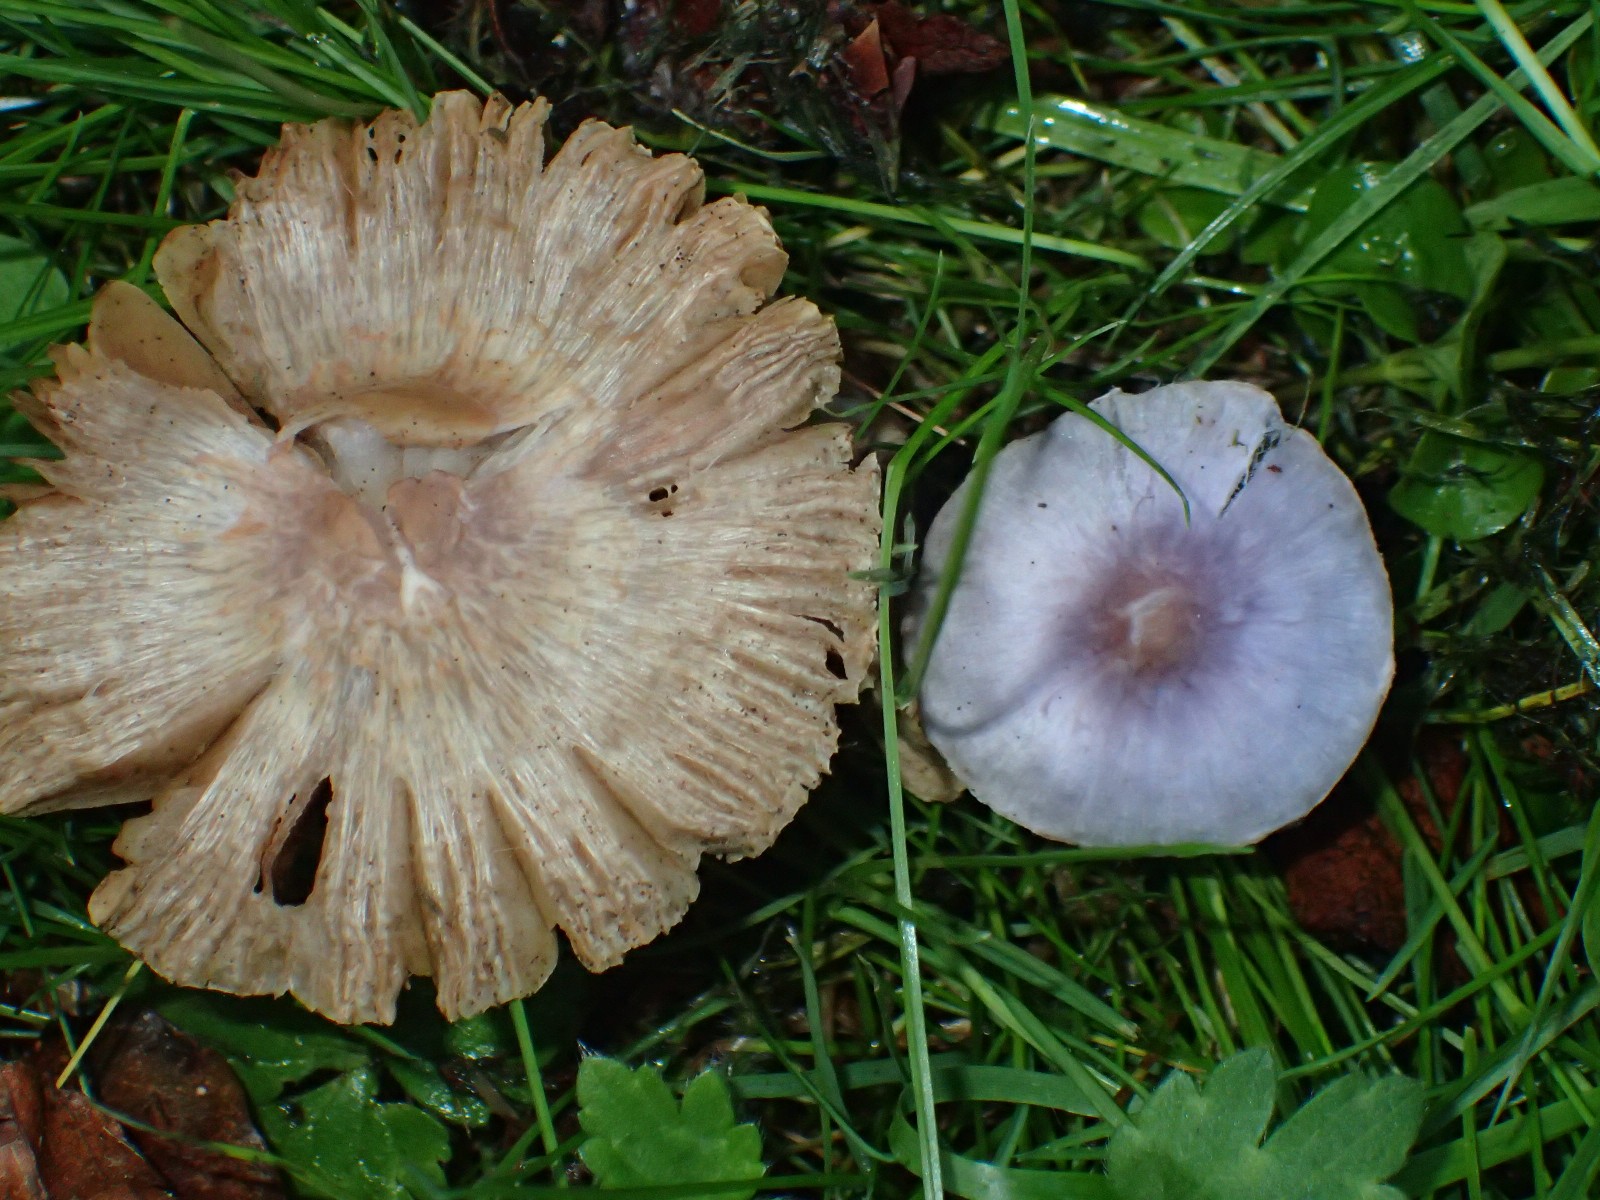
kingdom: Fungi
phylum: Basidiomycota
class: Agaricomycetes
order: Agaricales
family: Inocybaceae
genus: Inocybe
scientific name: Inocybe geophylla
